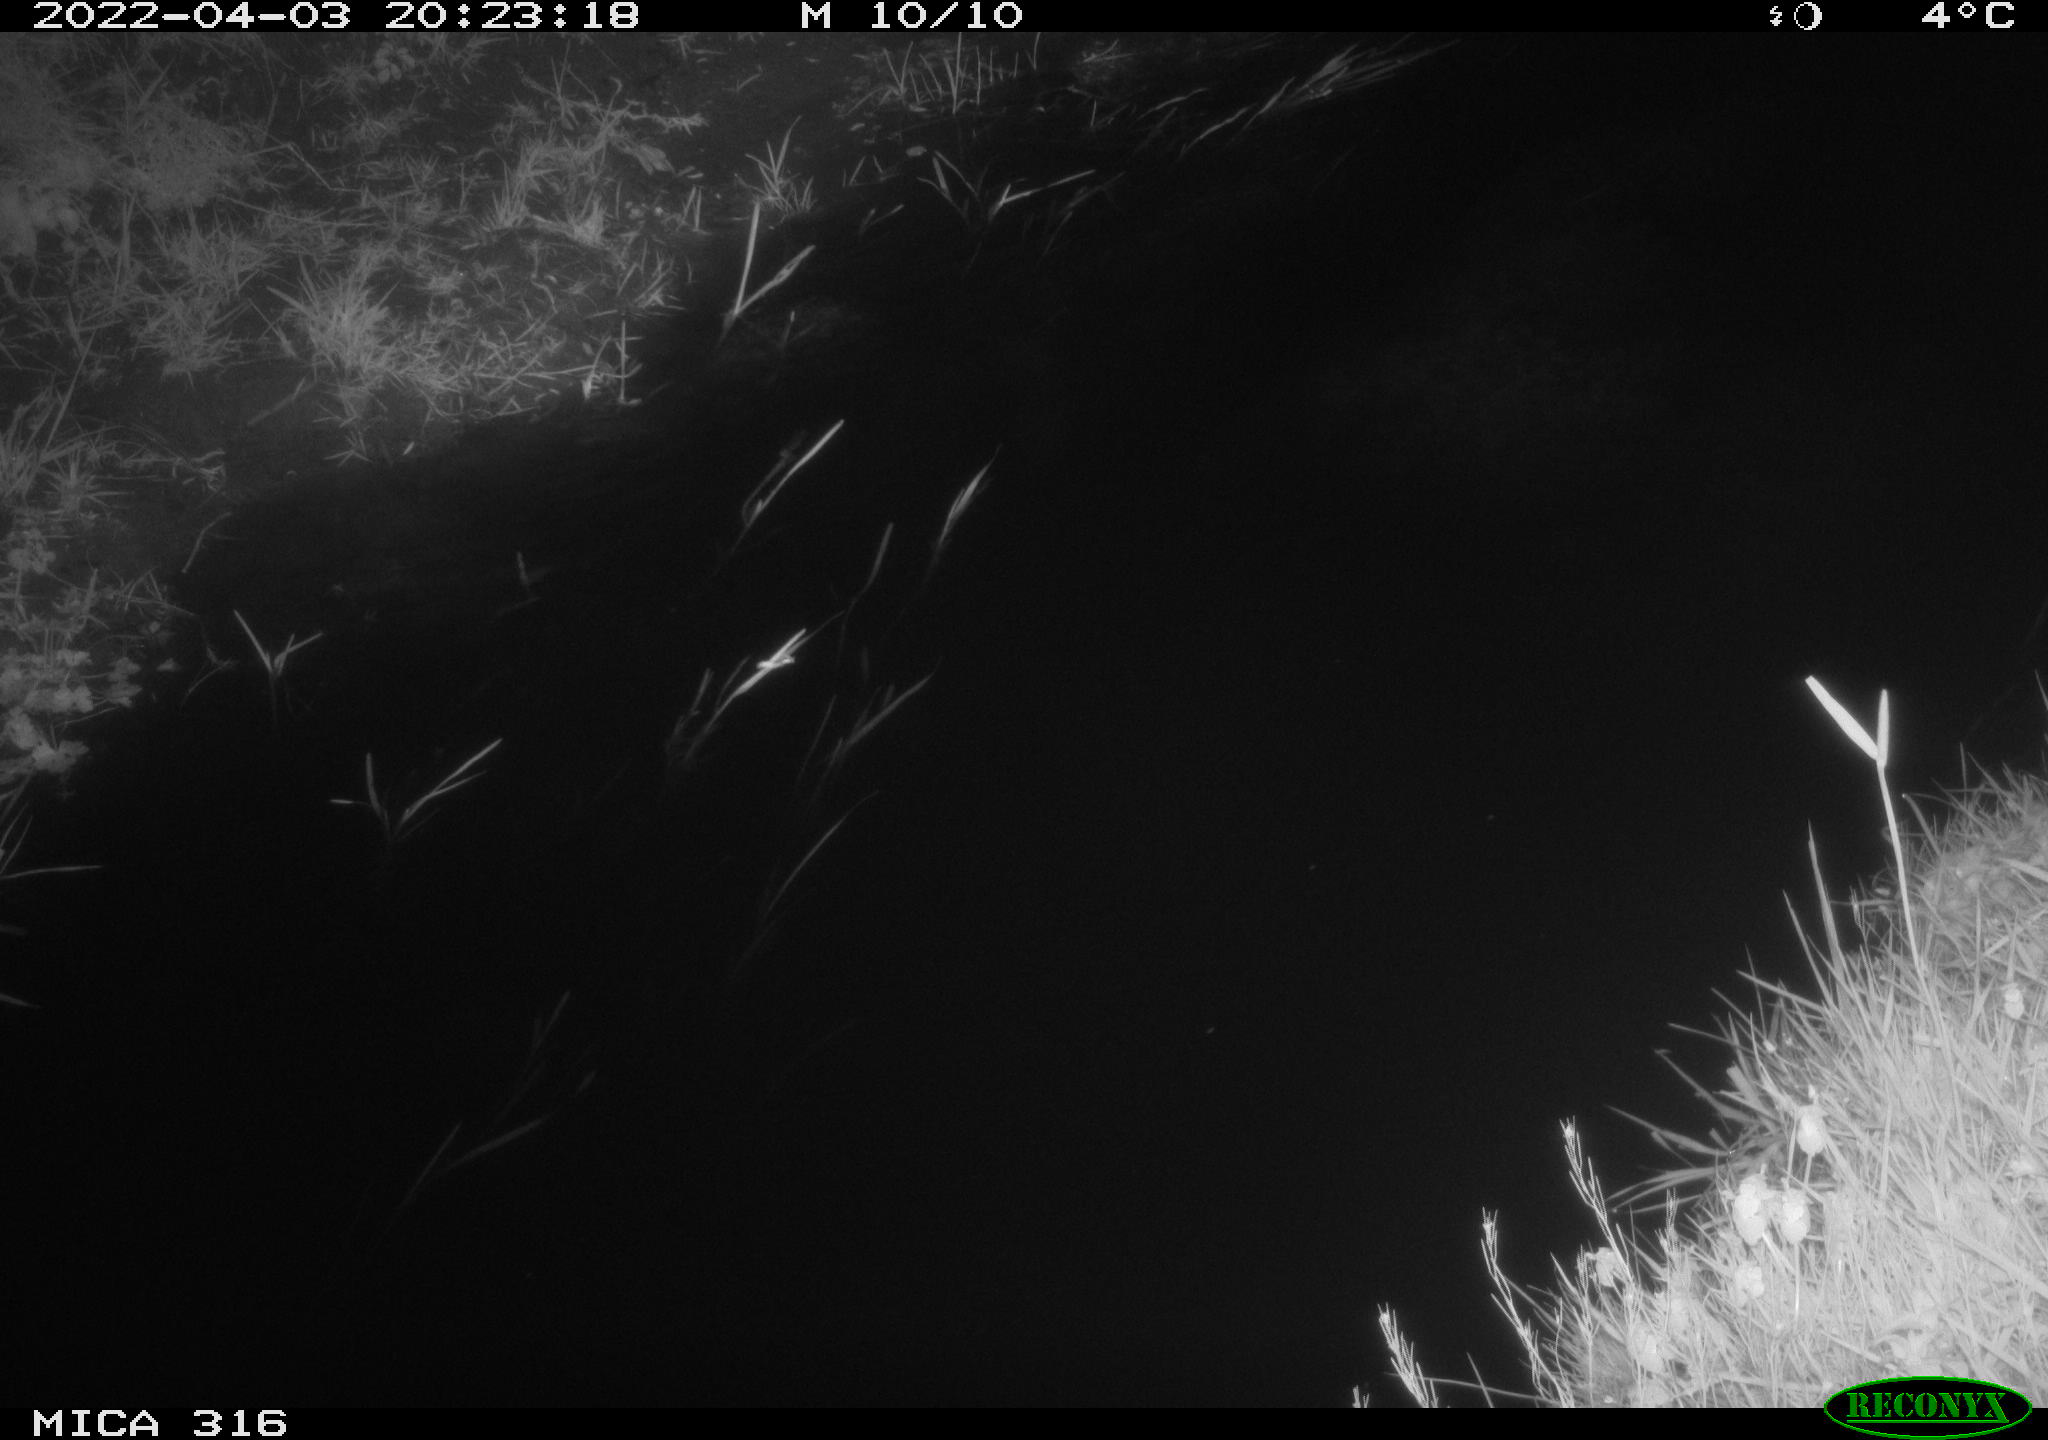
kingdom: Animalia
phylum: Chordata
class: Aves
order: Anseriformes
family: Anatidae
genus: Anas
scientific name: Anas platyrhynchos
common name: Mallard
